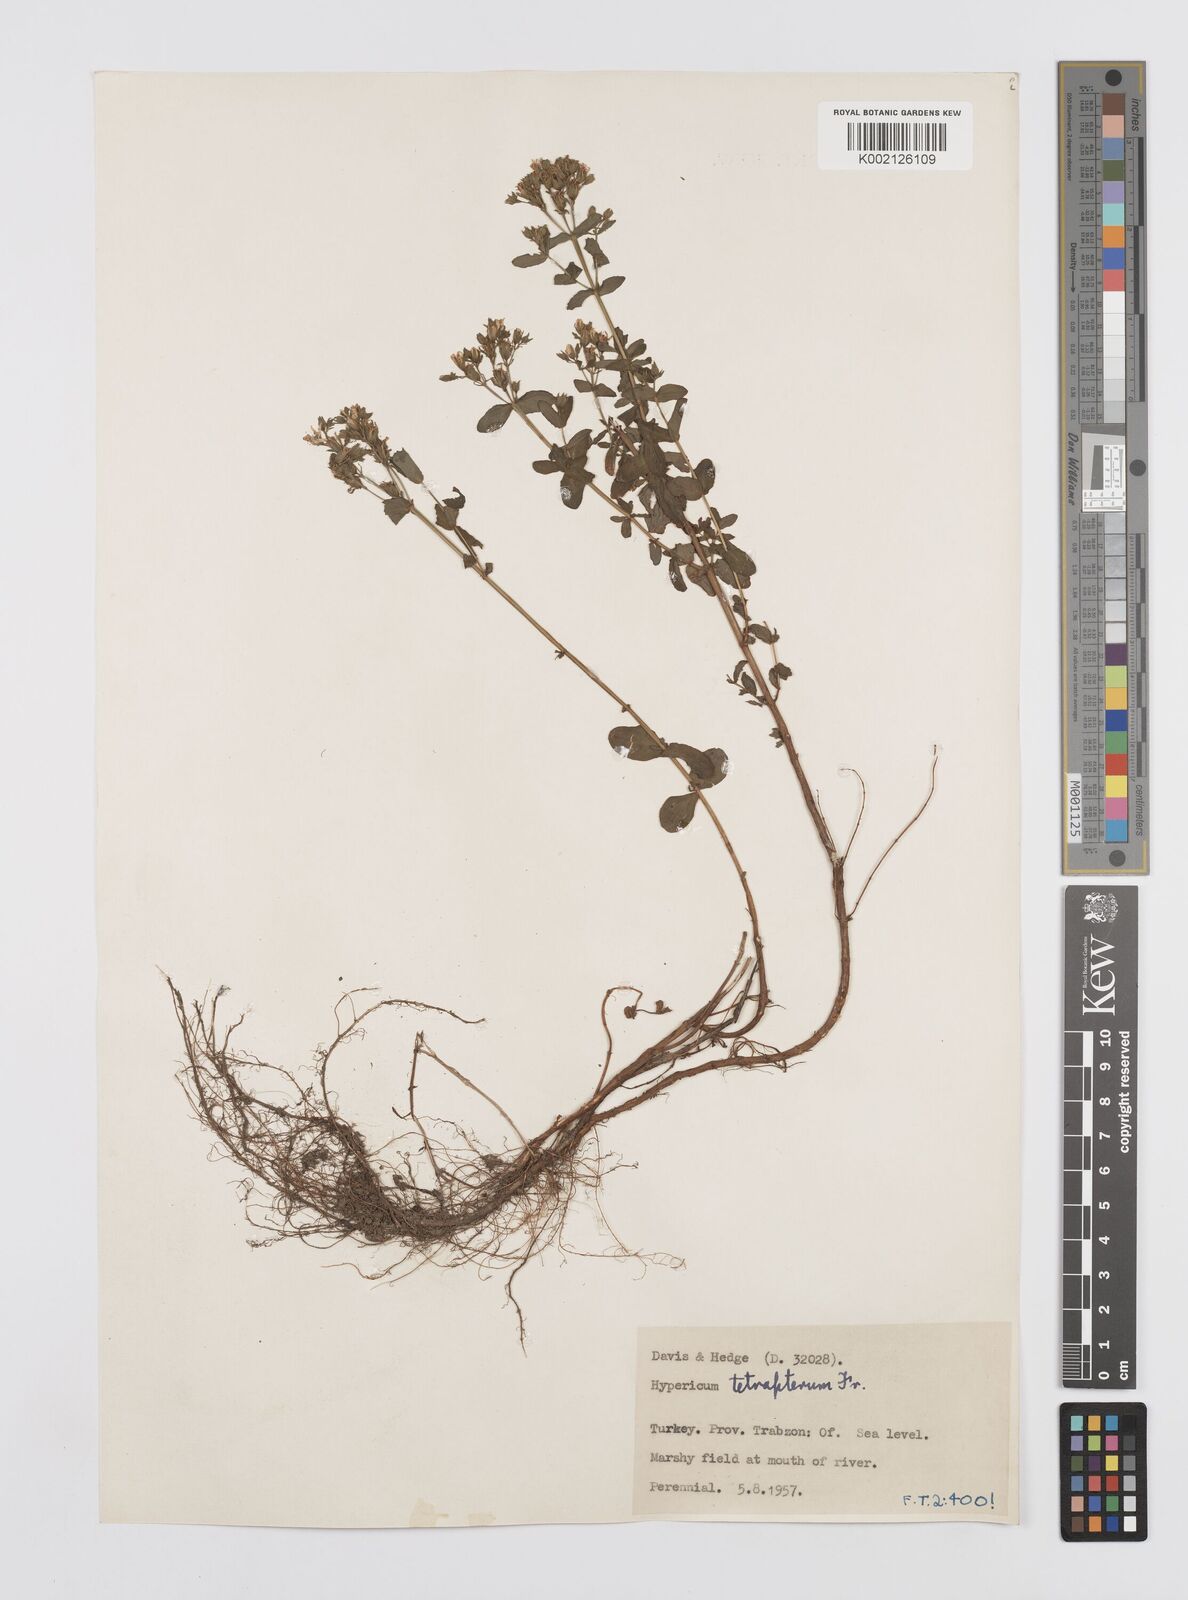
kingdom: Plantae
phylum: Tracheophyta
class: Magnoliopsida
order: Malpighiales
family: Hypericaceae
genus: Hypericum
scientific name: Hypericum tetrapterum
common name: Square-stalked st. john's-wort
